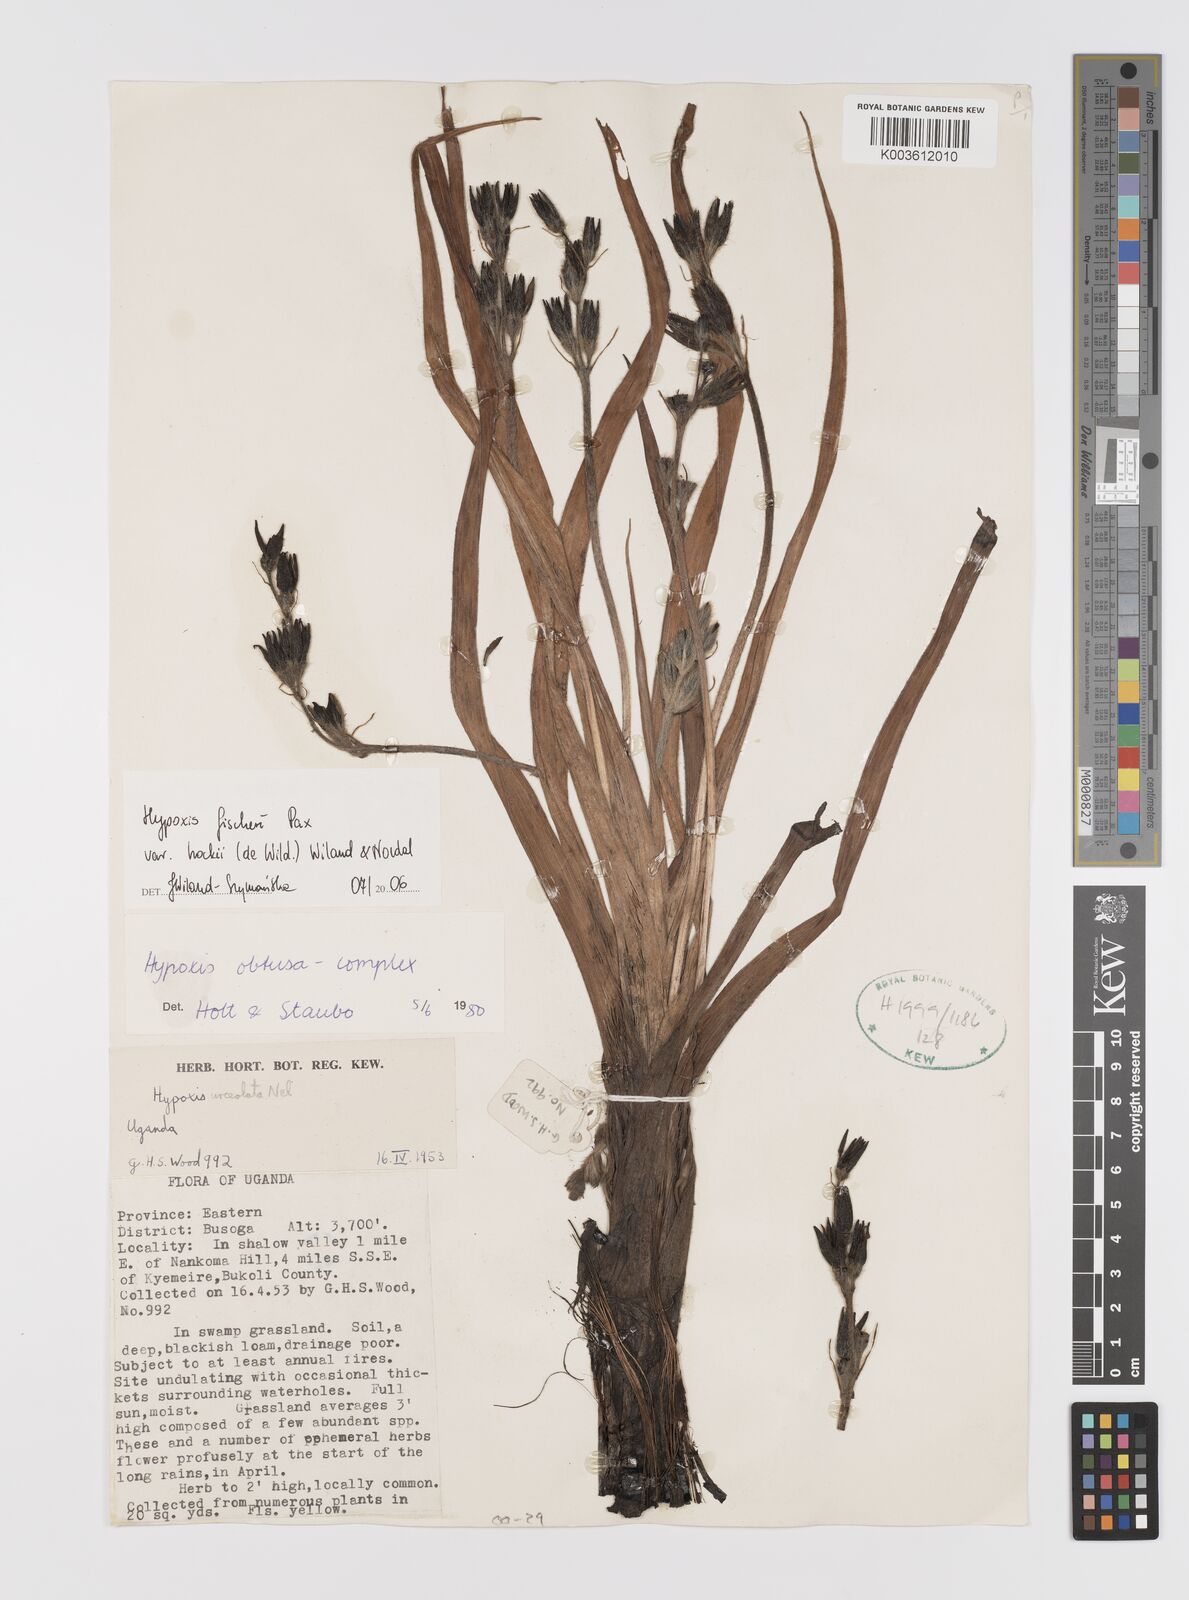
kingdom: Plantae
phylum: Tracheophyta
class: Liliopsida
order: Asparagales
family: Hypoxidaceae
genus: Hypoxis
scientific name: Hypoxis fischeri
